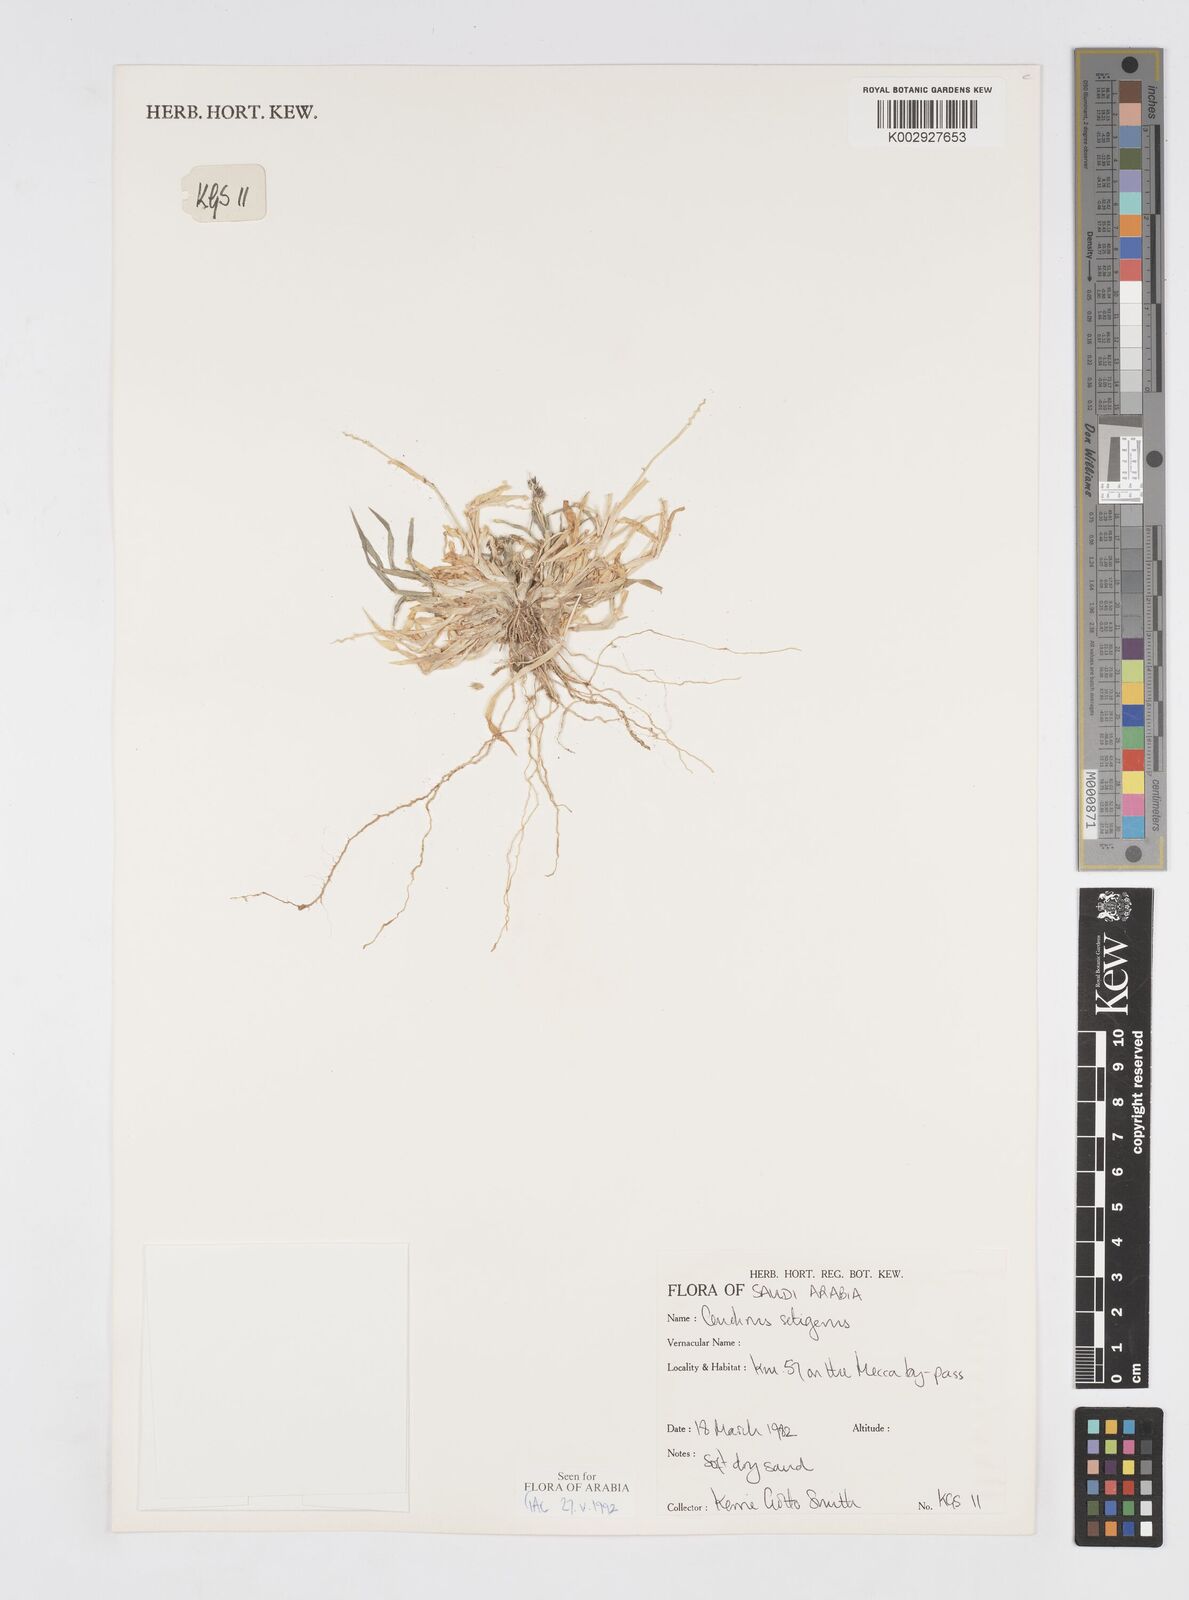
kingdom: Plantae
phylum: Tracheophyta
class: Liliopsida
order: Poales
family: Poaceae
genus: Cenchrus
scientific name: Cenchrus setigerus
